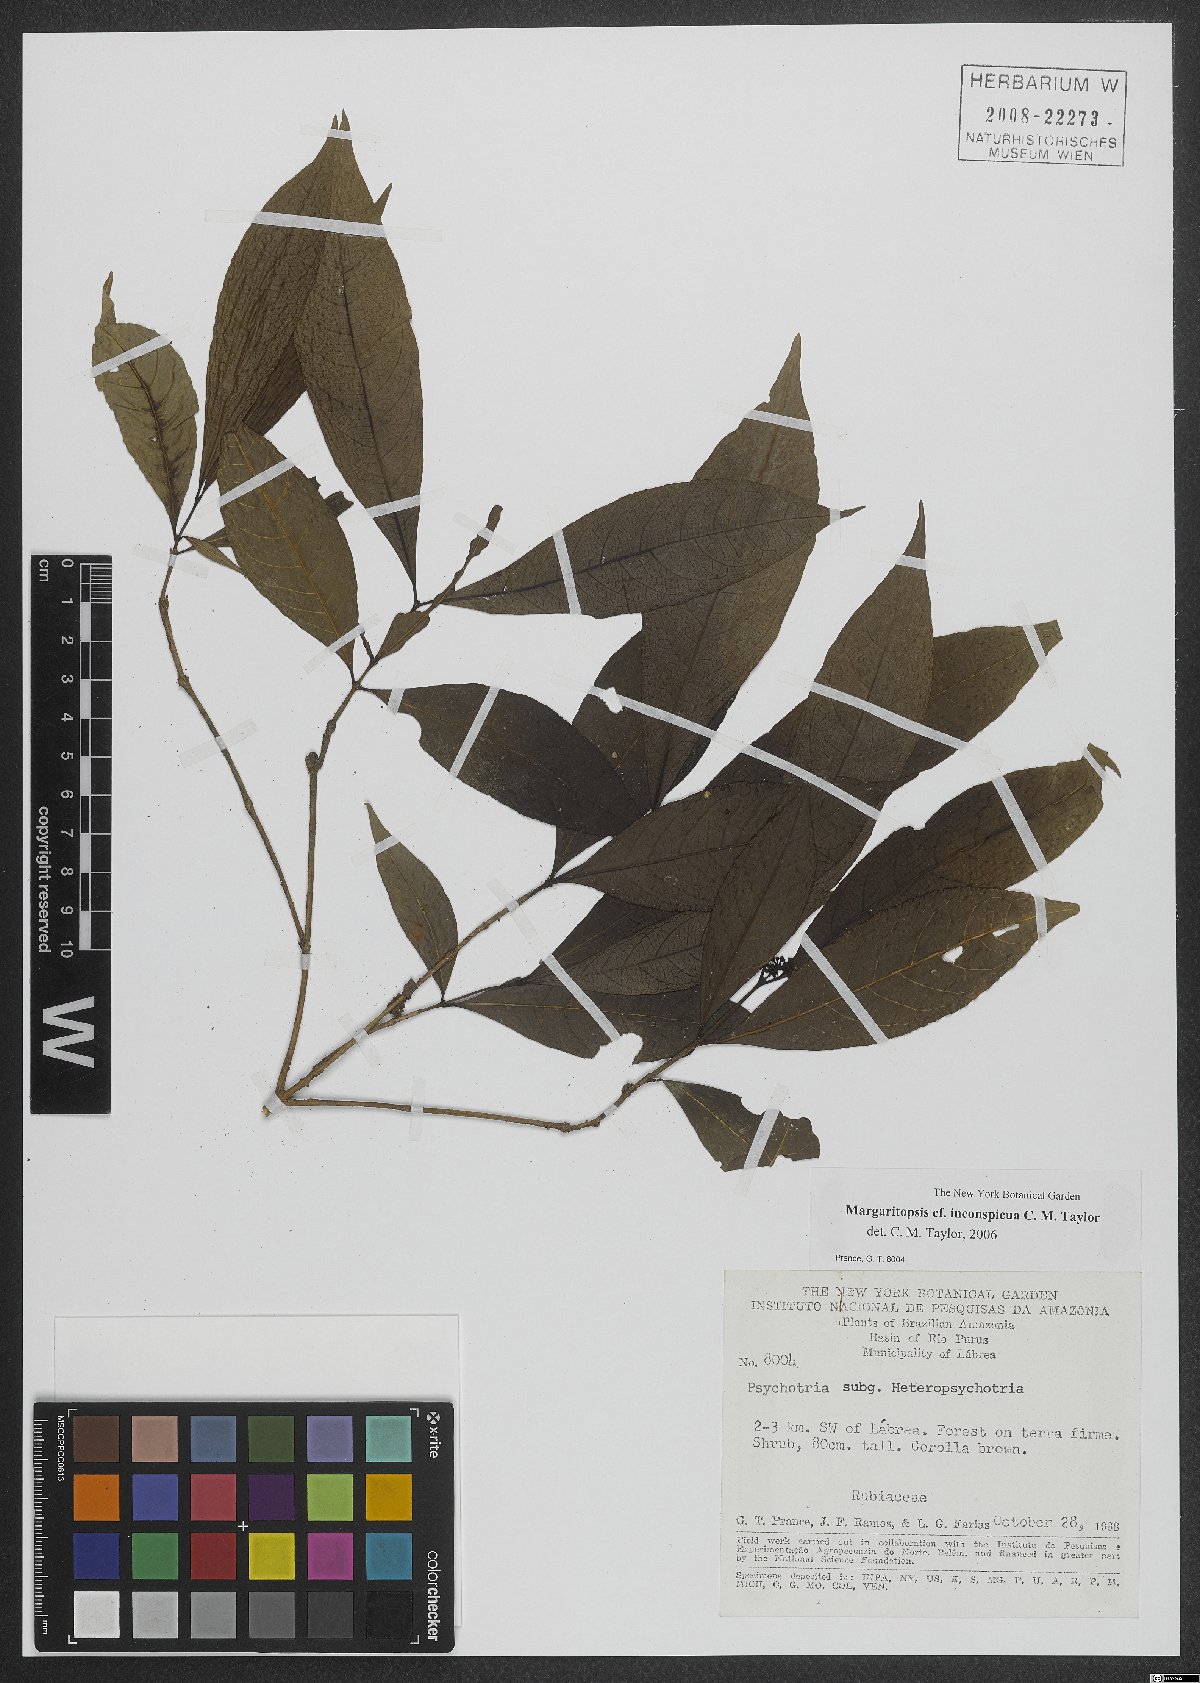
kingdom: Plantae
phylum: Tracheophyta
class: Magnoliopsida
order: Gentianales
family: Rubiaceae
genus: Eumachia
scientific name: Eumachia inconspicua
